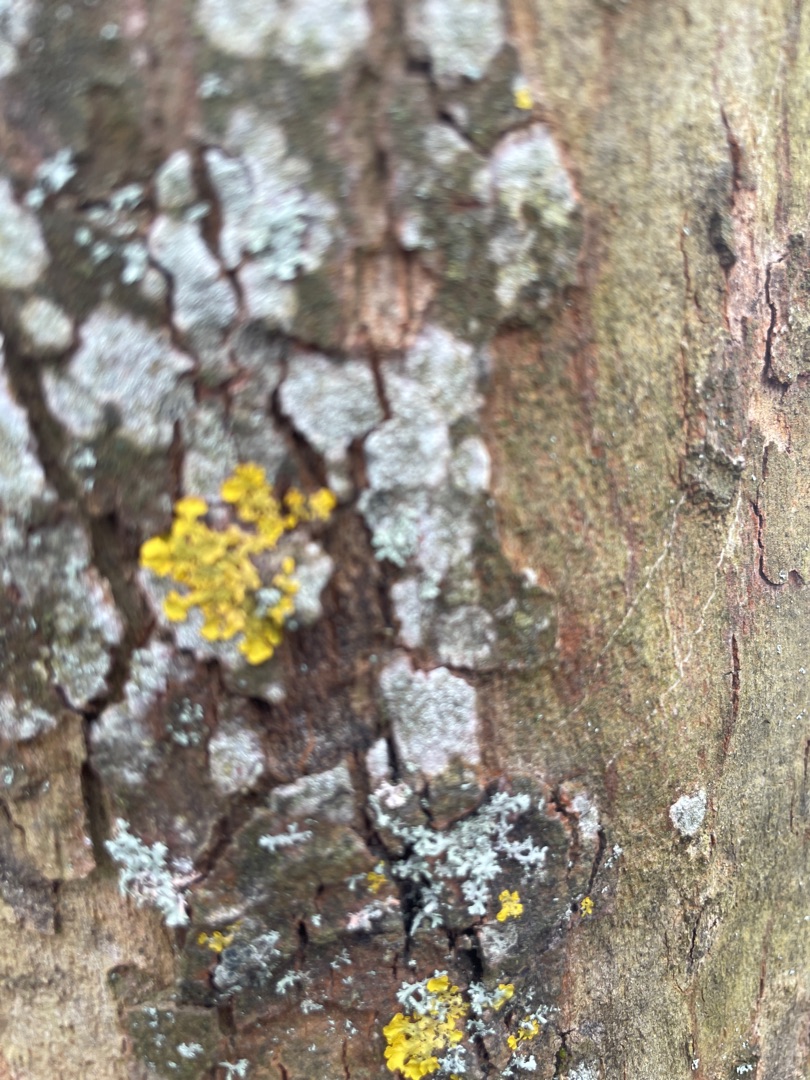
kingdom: Fungi
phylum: Ascomycota
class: Lecanoromycetes
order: Teloschistales
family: Teloschistaceae
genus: Xanthoria
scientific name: Xanthoria parietina
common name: Almindelig væggelav
